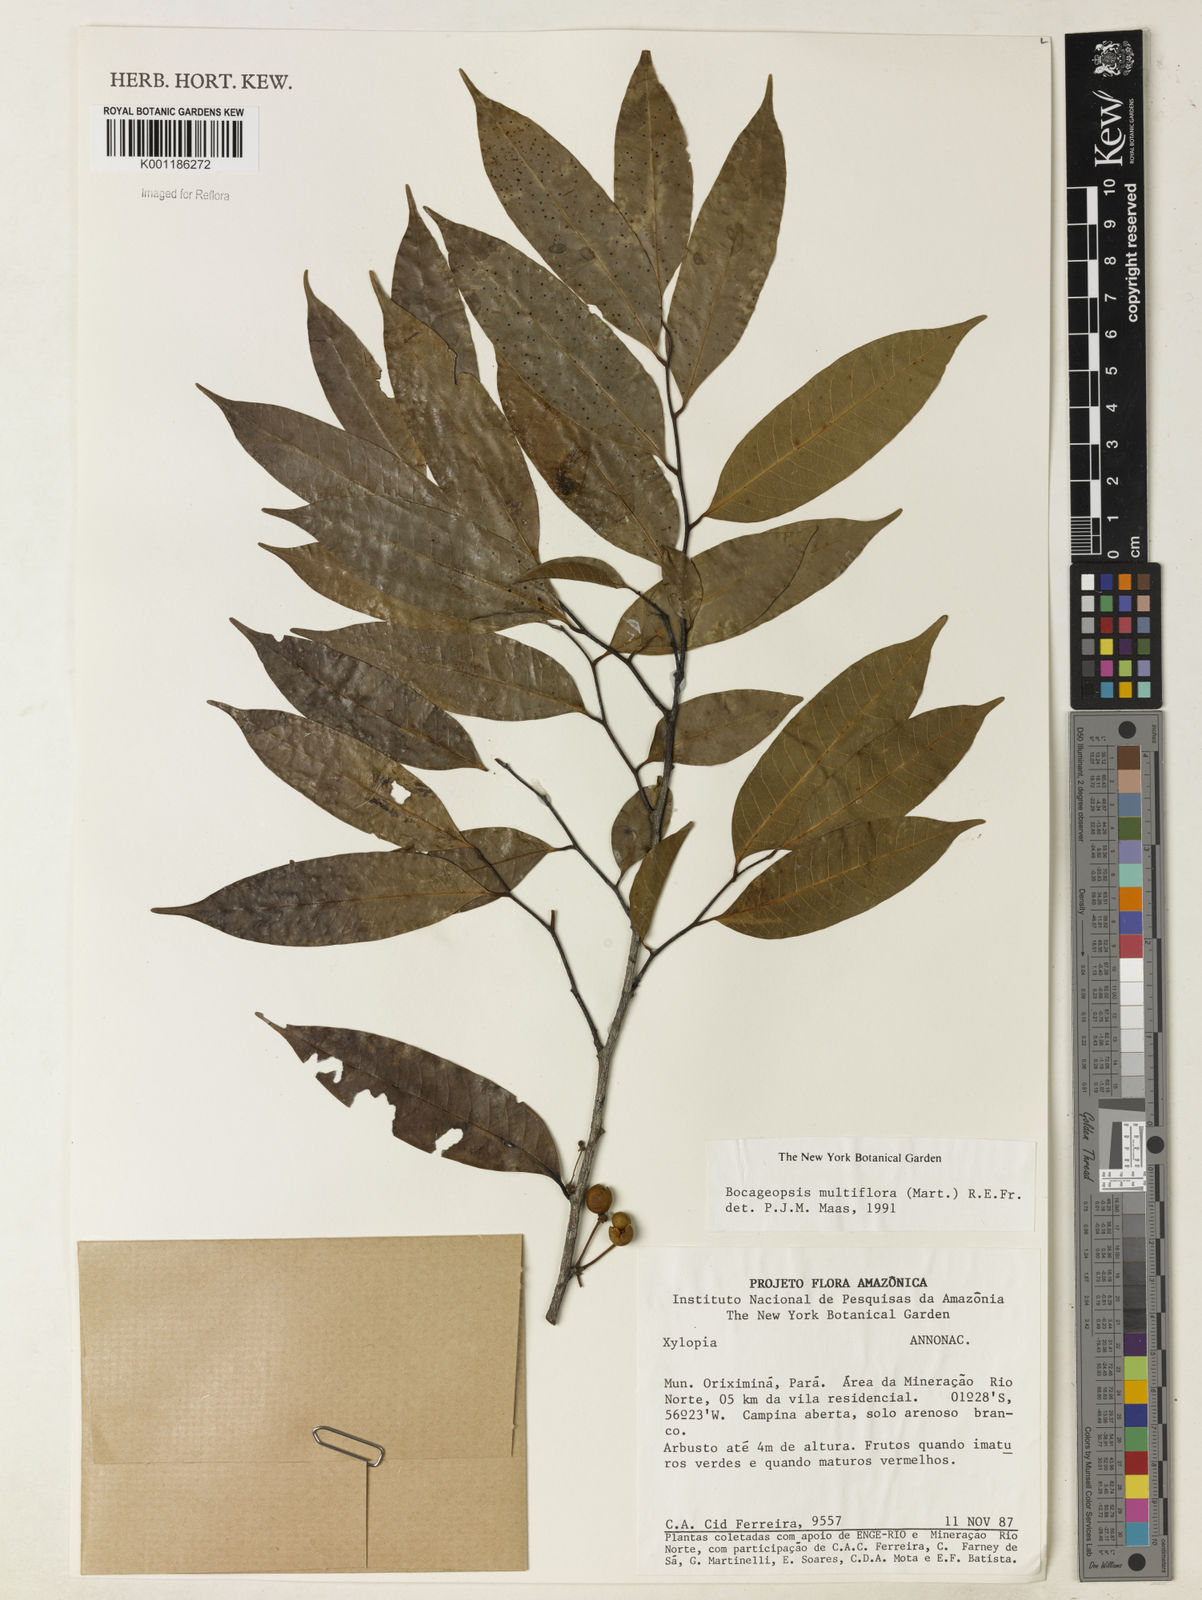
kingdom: Plantae
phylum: Tracheophyta
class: Magnoliopsida
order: Magnoliales
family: Annonaceae
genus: Bocageopsis
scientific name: Bocageopsis multiflora
